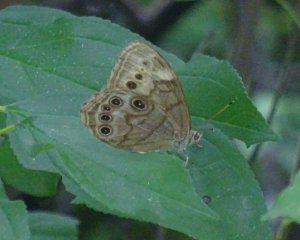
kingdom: Animalia
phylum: Arthropoda
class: Insecta
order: Lepidoptera
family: Nymphalidae
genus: Lethe
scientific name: Lethe anthedon
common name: Northern Pearly-Eye
